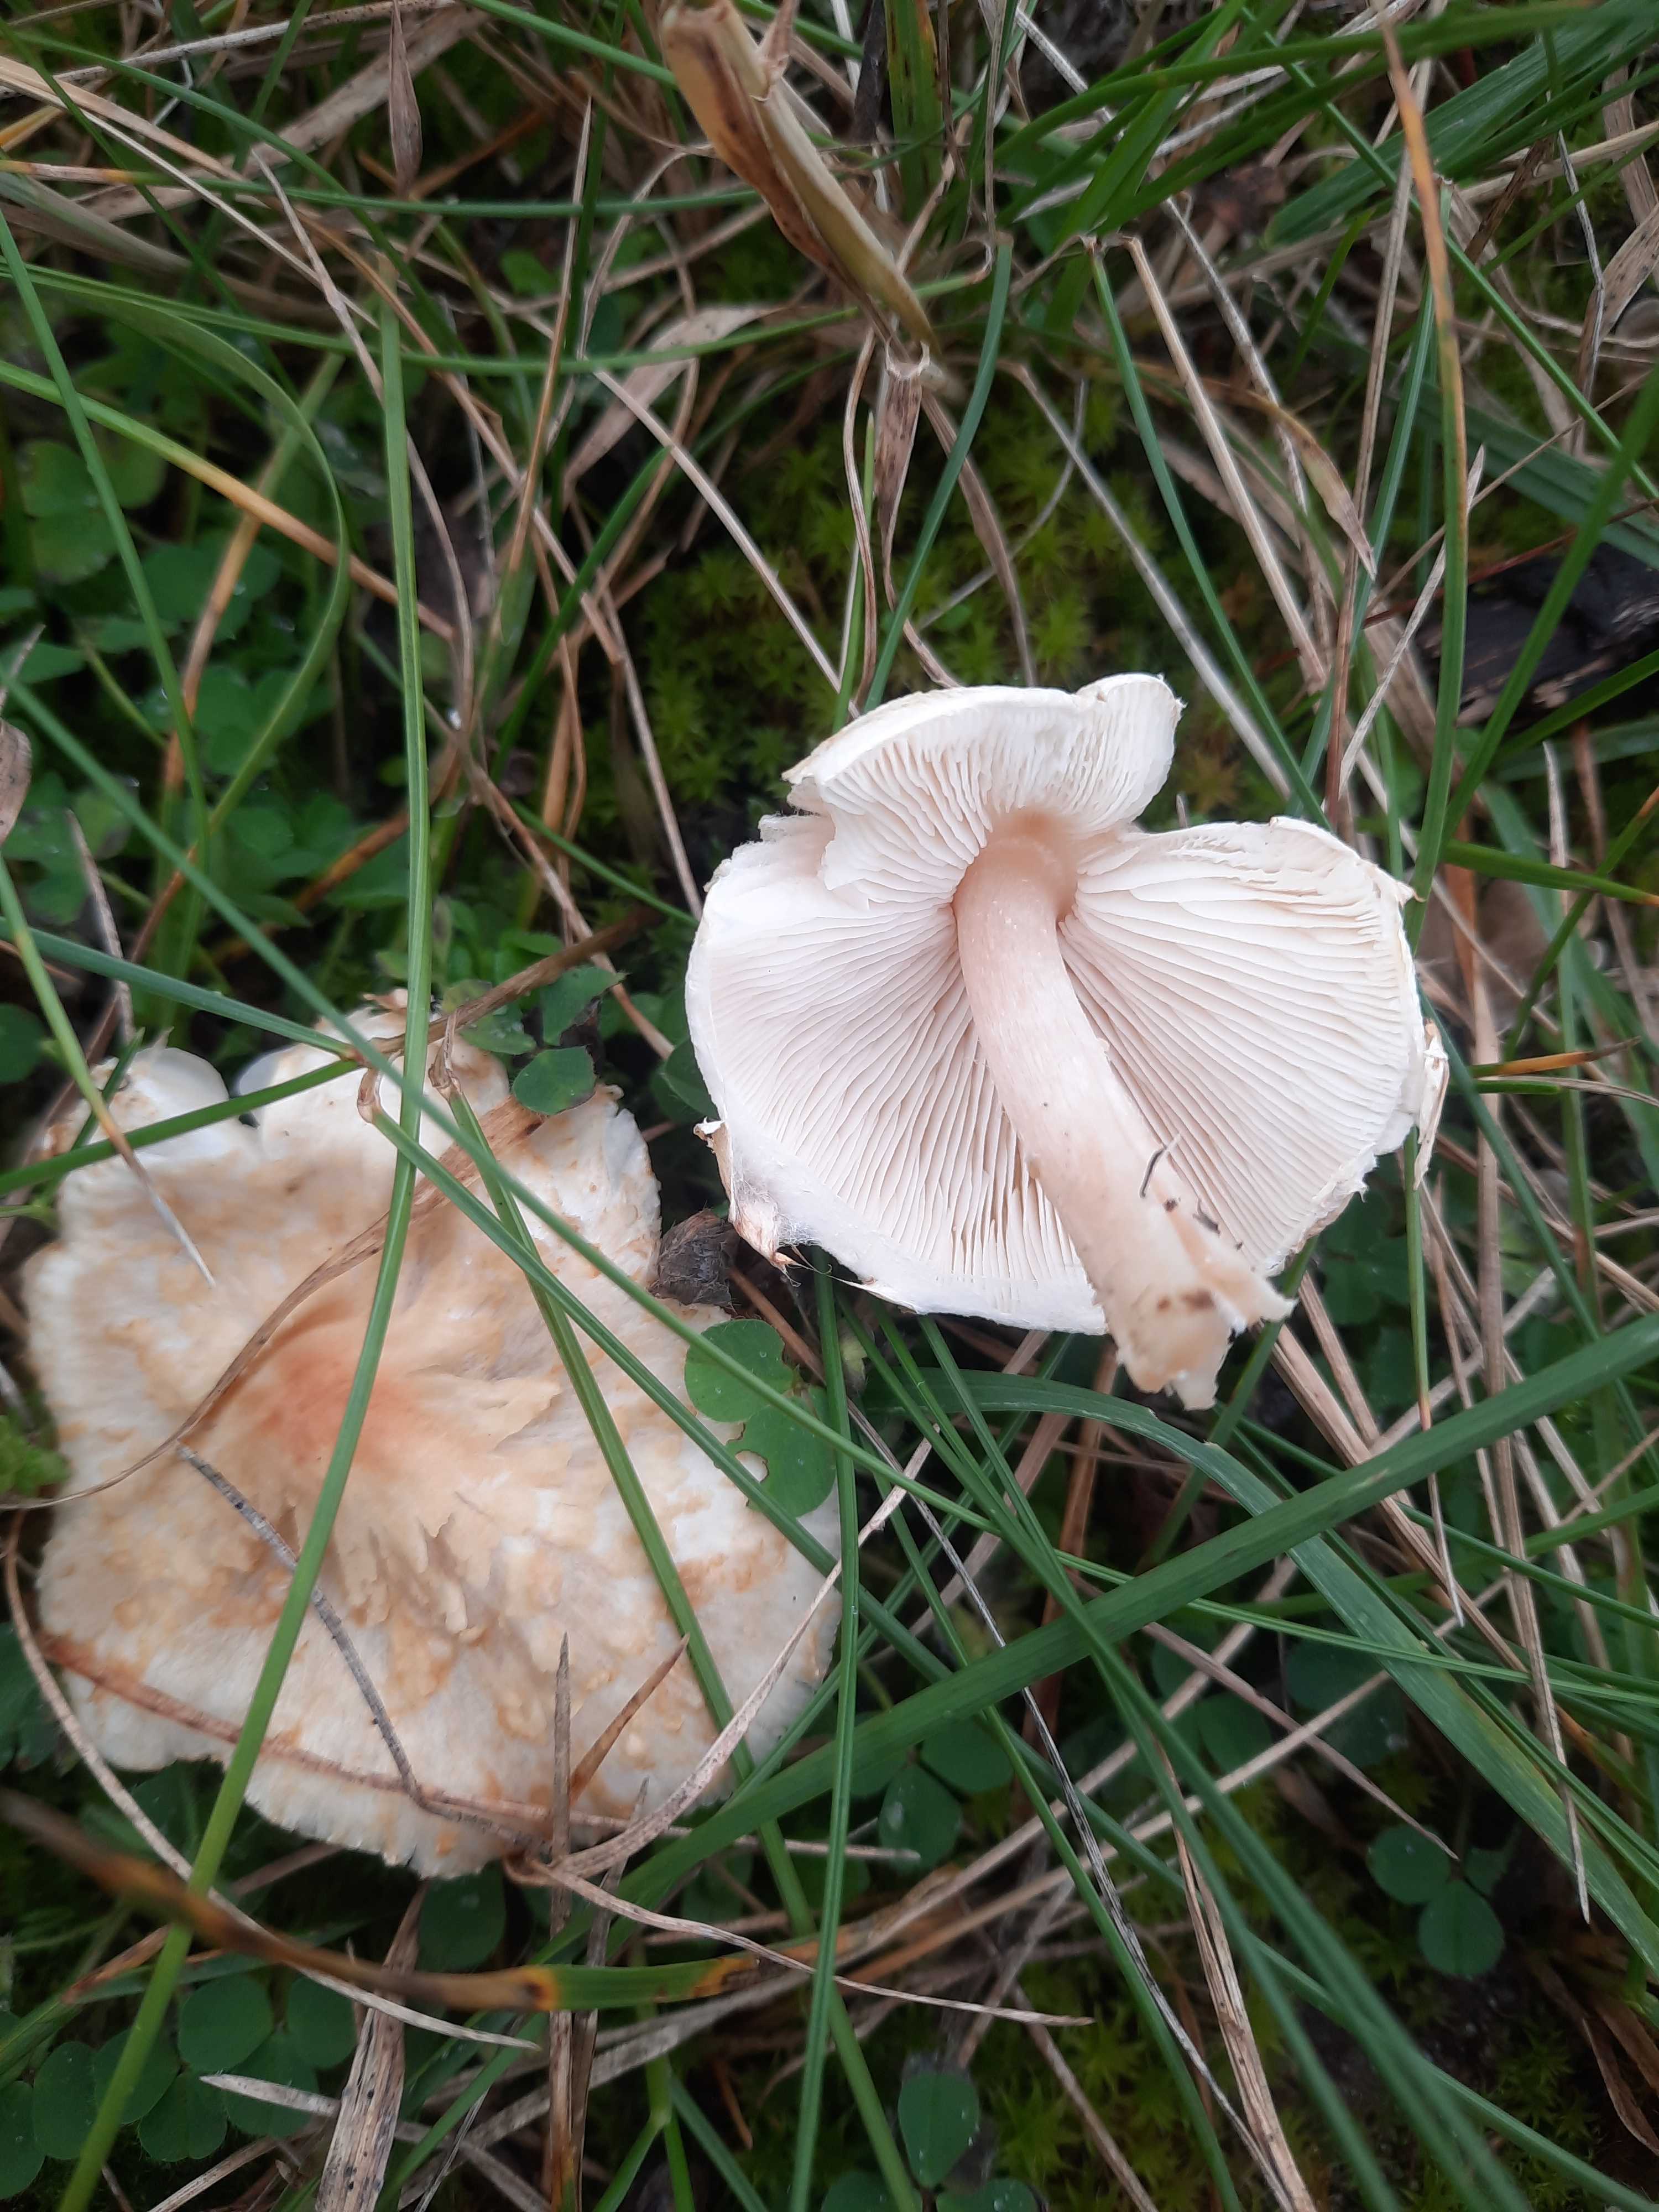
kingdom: Fungi
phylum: Basidiomycota
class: Agaricomycetes
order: Agaricales
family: Agaricaceae
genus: Lepiota
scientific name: Lepiota erminea
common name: hvid parasolhat
